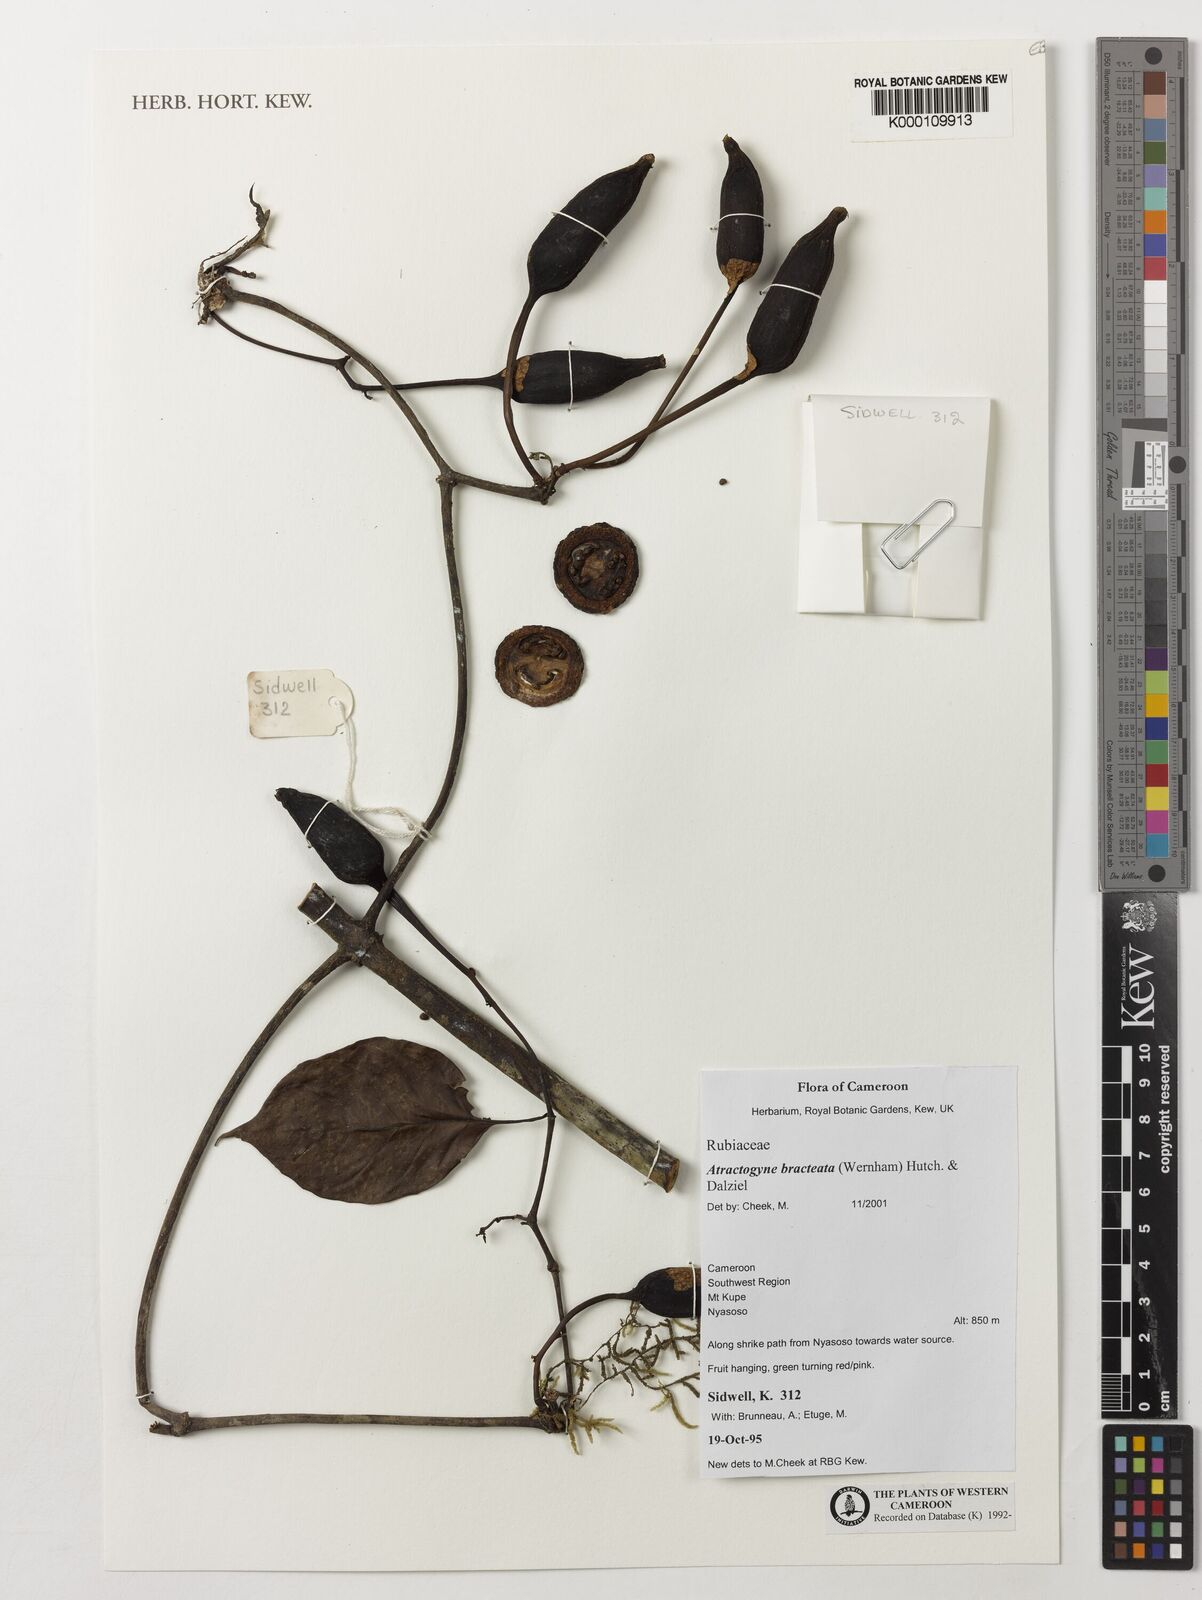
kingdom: Plantae
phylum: Tracheophyta
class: Magnoliopsida
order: Gentianales
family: Rubiaceae
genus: Atractogyne
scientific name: Atractogyne bracteata
